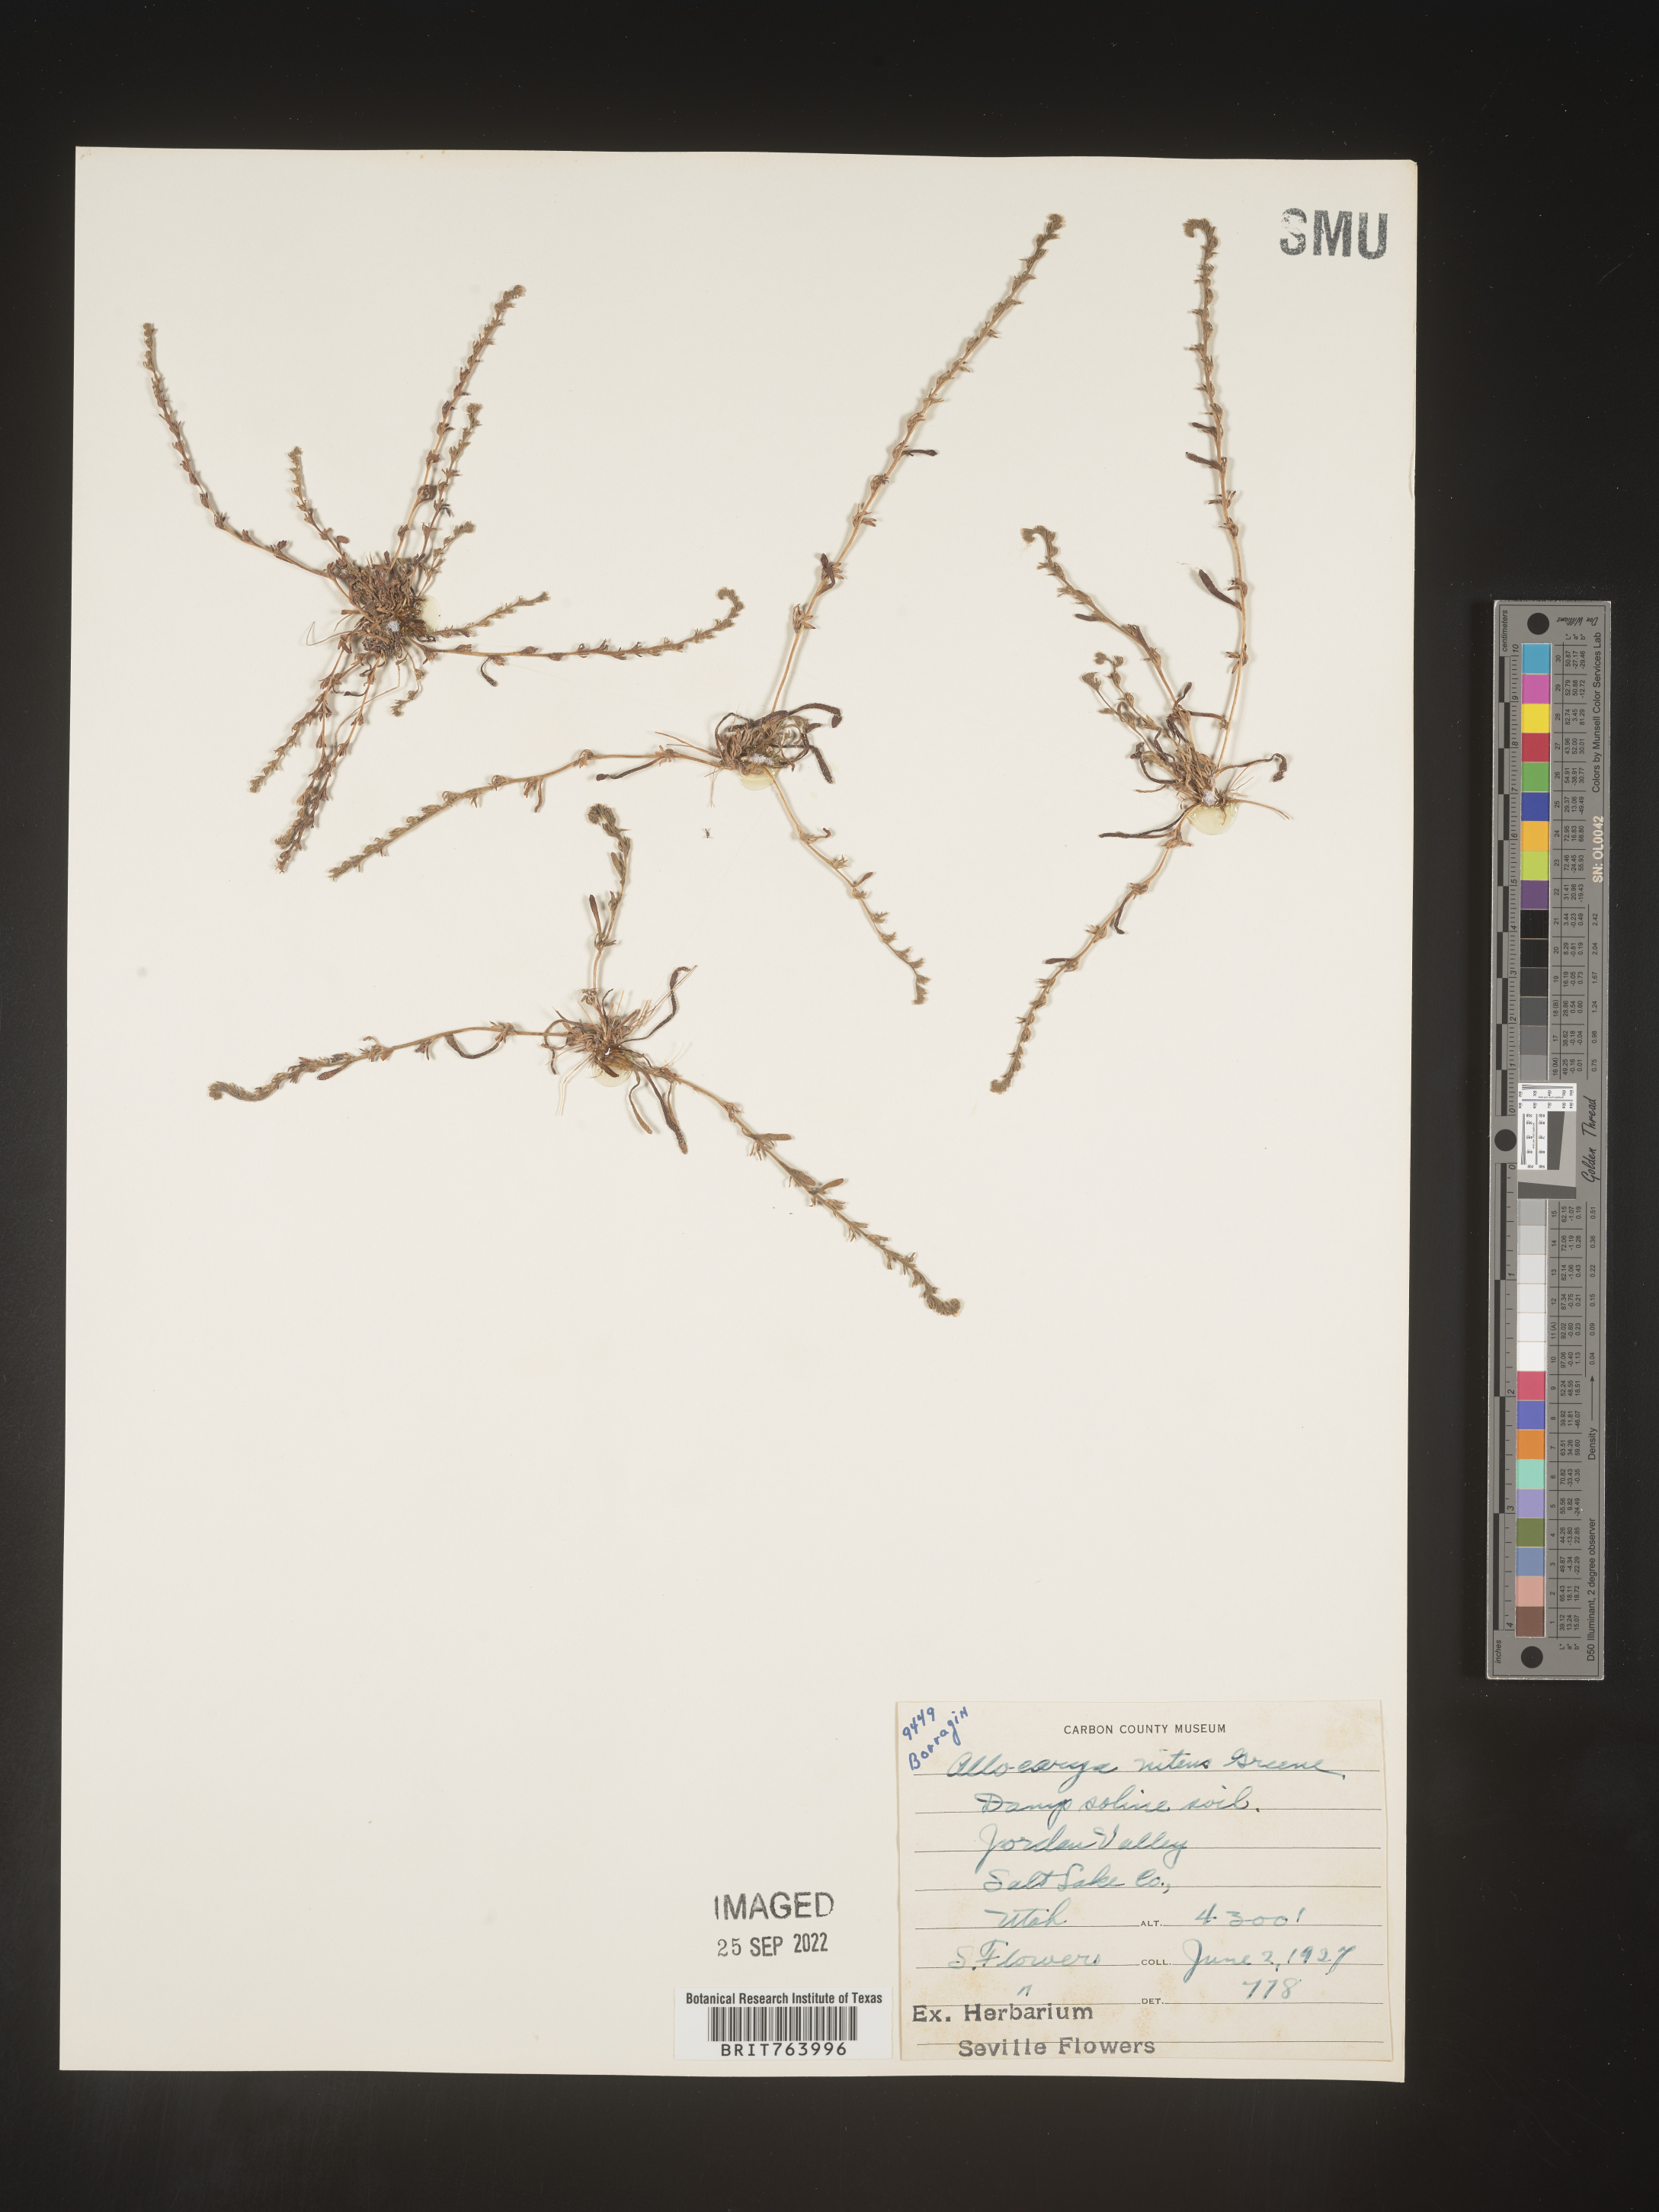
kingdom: Plantae
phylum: Tracheophyta
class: Magnoliopsida
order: Boraginales
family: Boraginaceae
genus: Plagiobothrys
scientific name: Plagiobothrys
